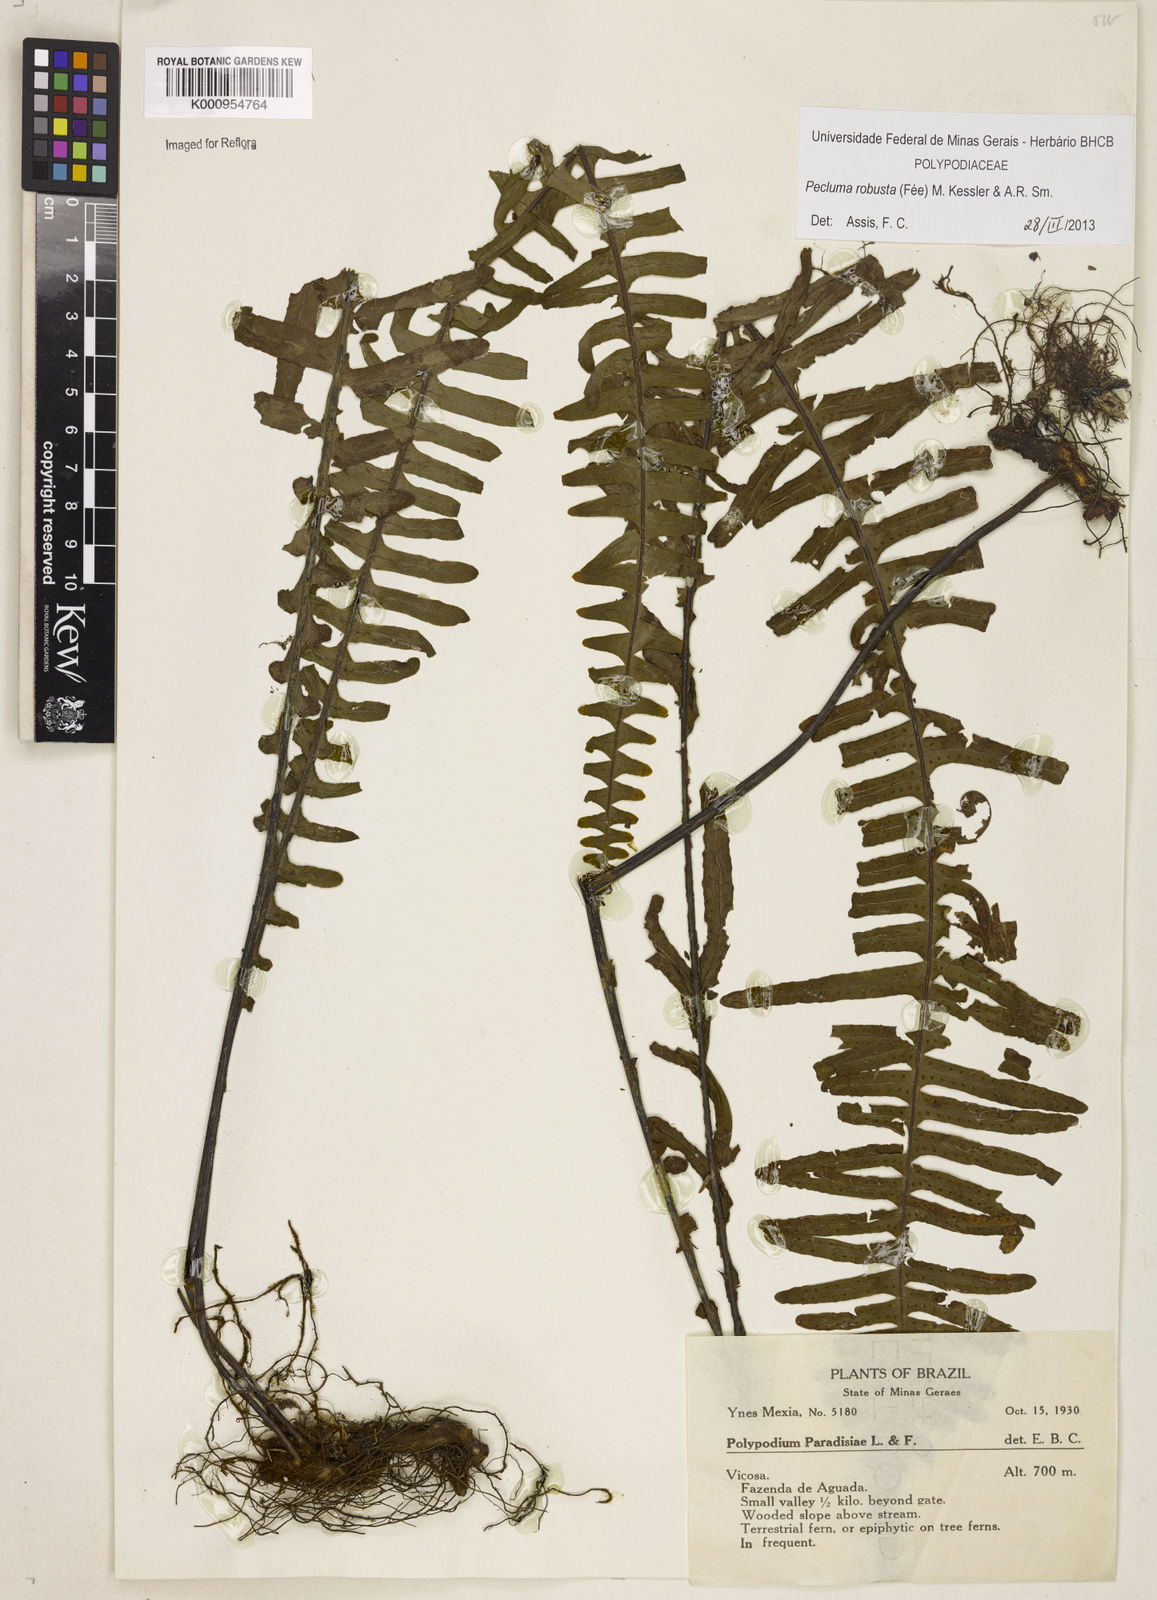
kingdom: Plantae
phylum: Tracheophyta
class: Polypodiopsida
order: Polypodiales
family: Polypodiaceae
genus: Pecluma
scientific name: Pecluma
